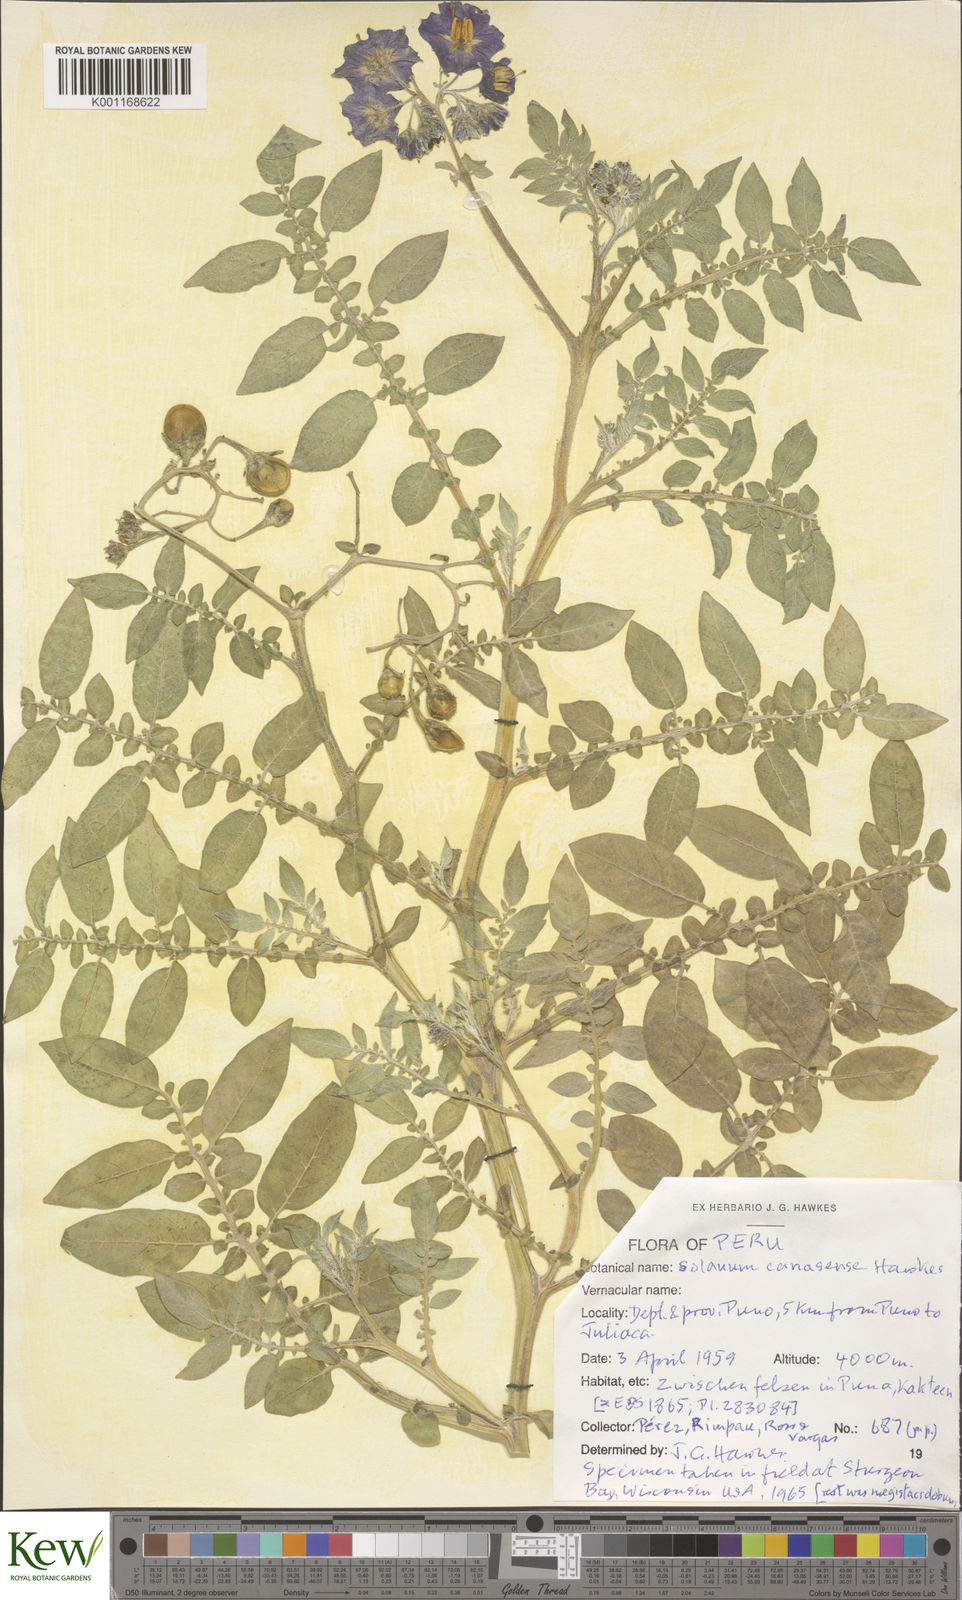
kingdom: Plantae
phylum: Tracheophyta
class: Magnoliopsida
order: Solanales
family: Solanaceae
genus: Solanum
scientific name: Solanum candolleanum
